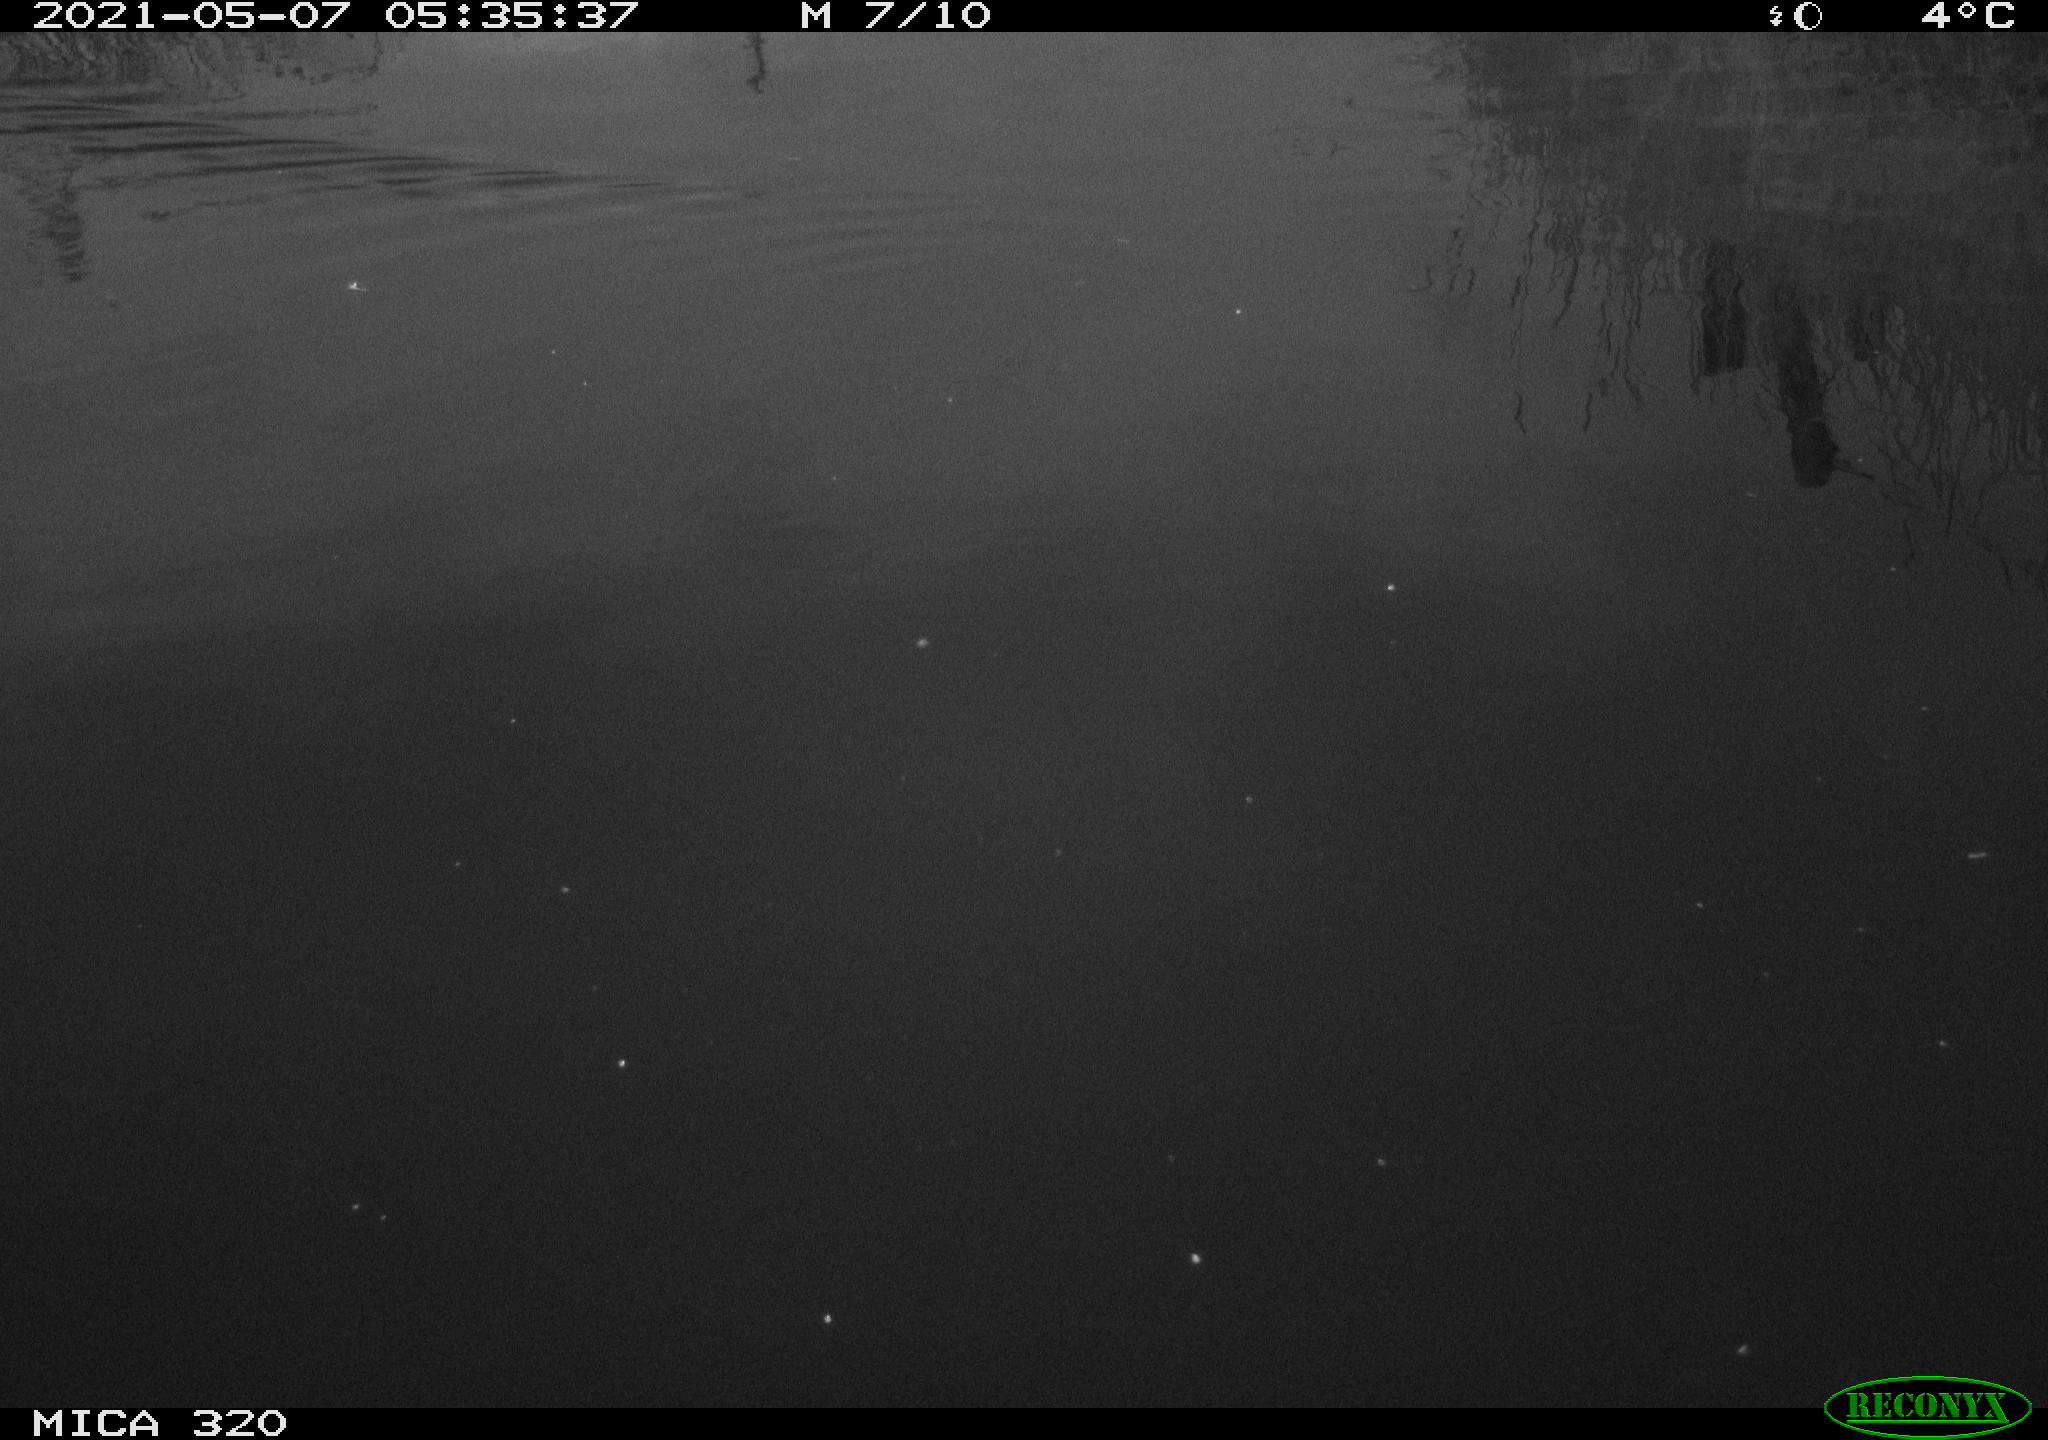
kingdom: Animalia
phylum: Chordata
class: Aves
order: Anseriformes
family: Anatidae
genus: Anas
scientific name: Anas platyrhynchos
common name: Mallard
